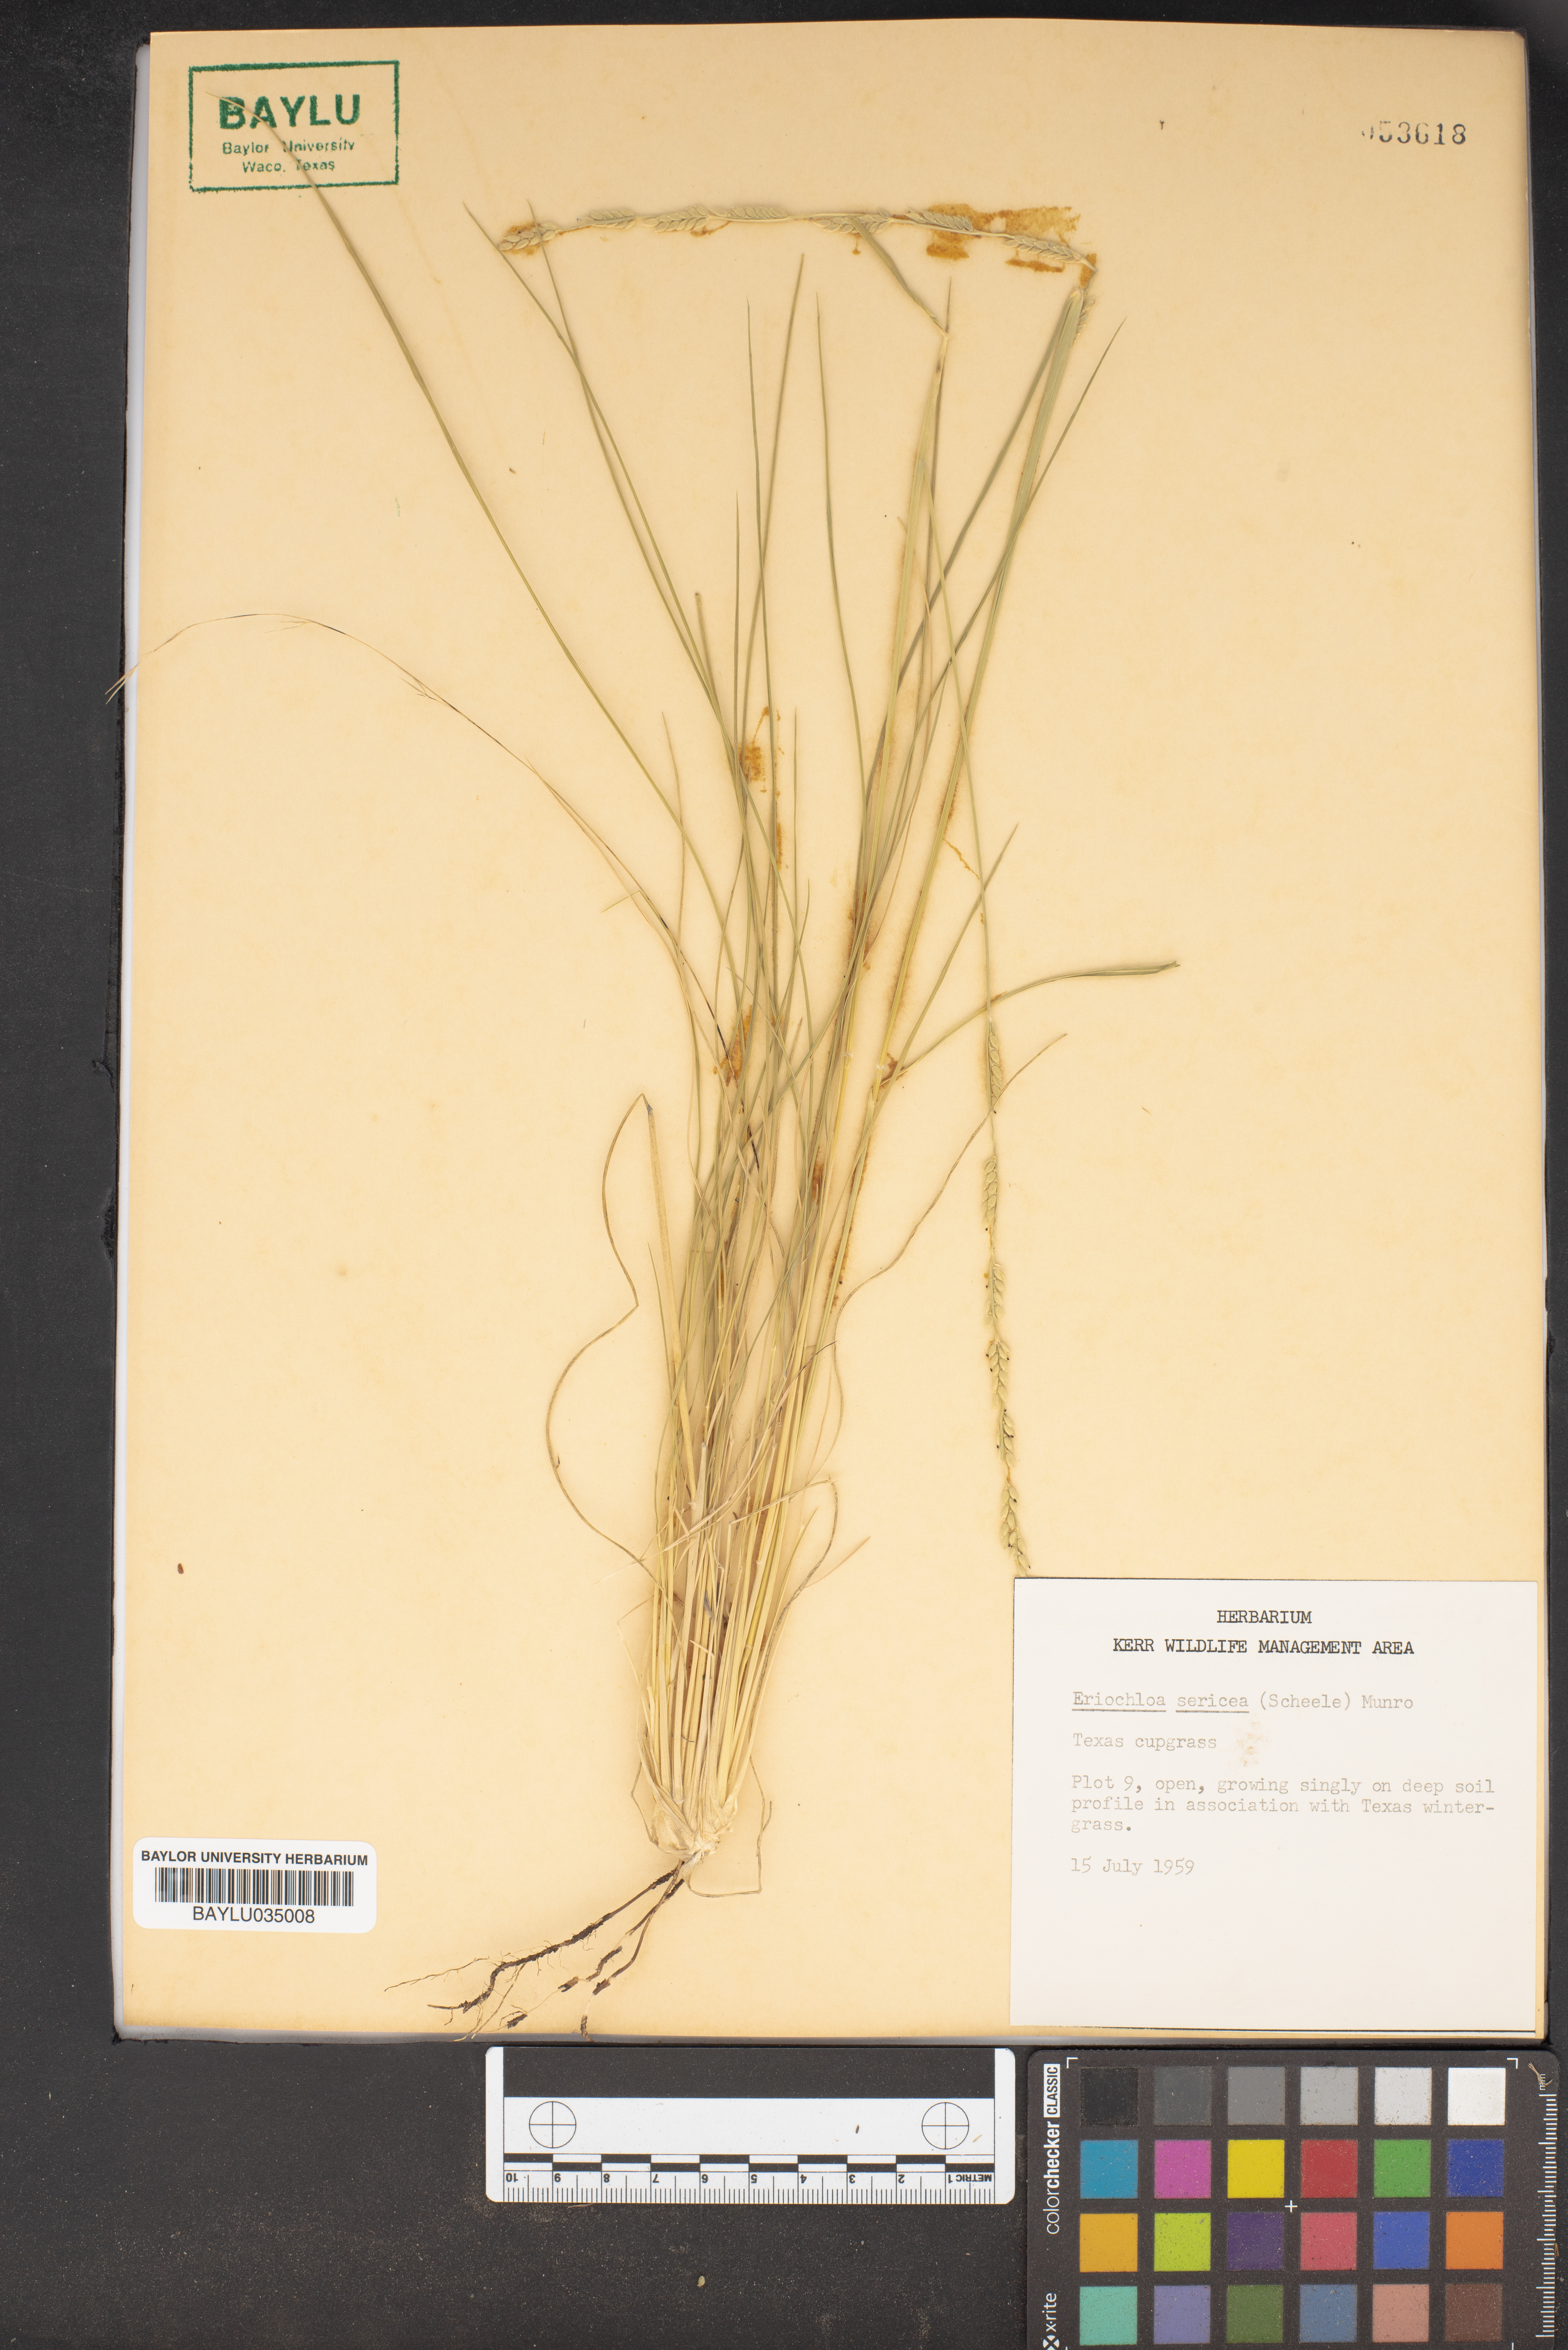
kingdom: Plantae
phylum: Tracheophyta
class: Liliopsida
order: Poales
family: Poaceae
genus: Eriochloa
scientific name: Eriochloa sericea
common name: Texas cup grass
